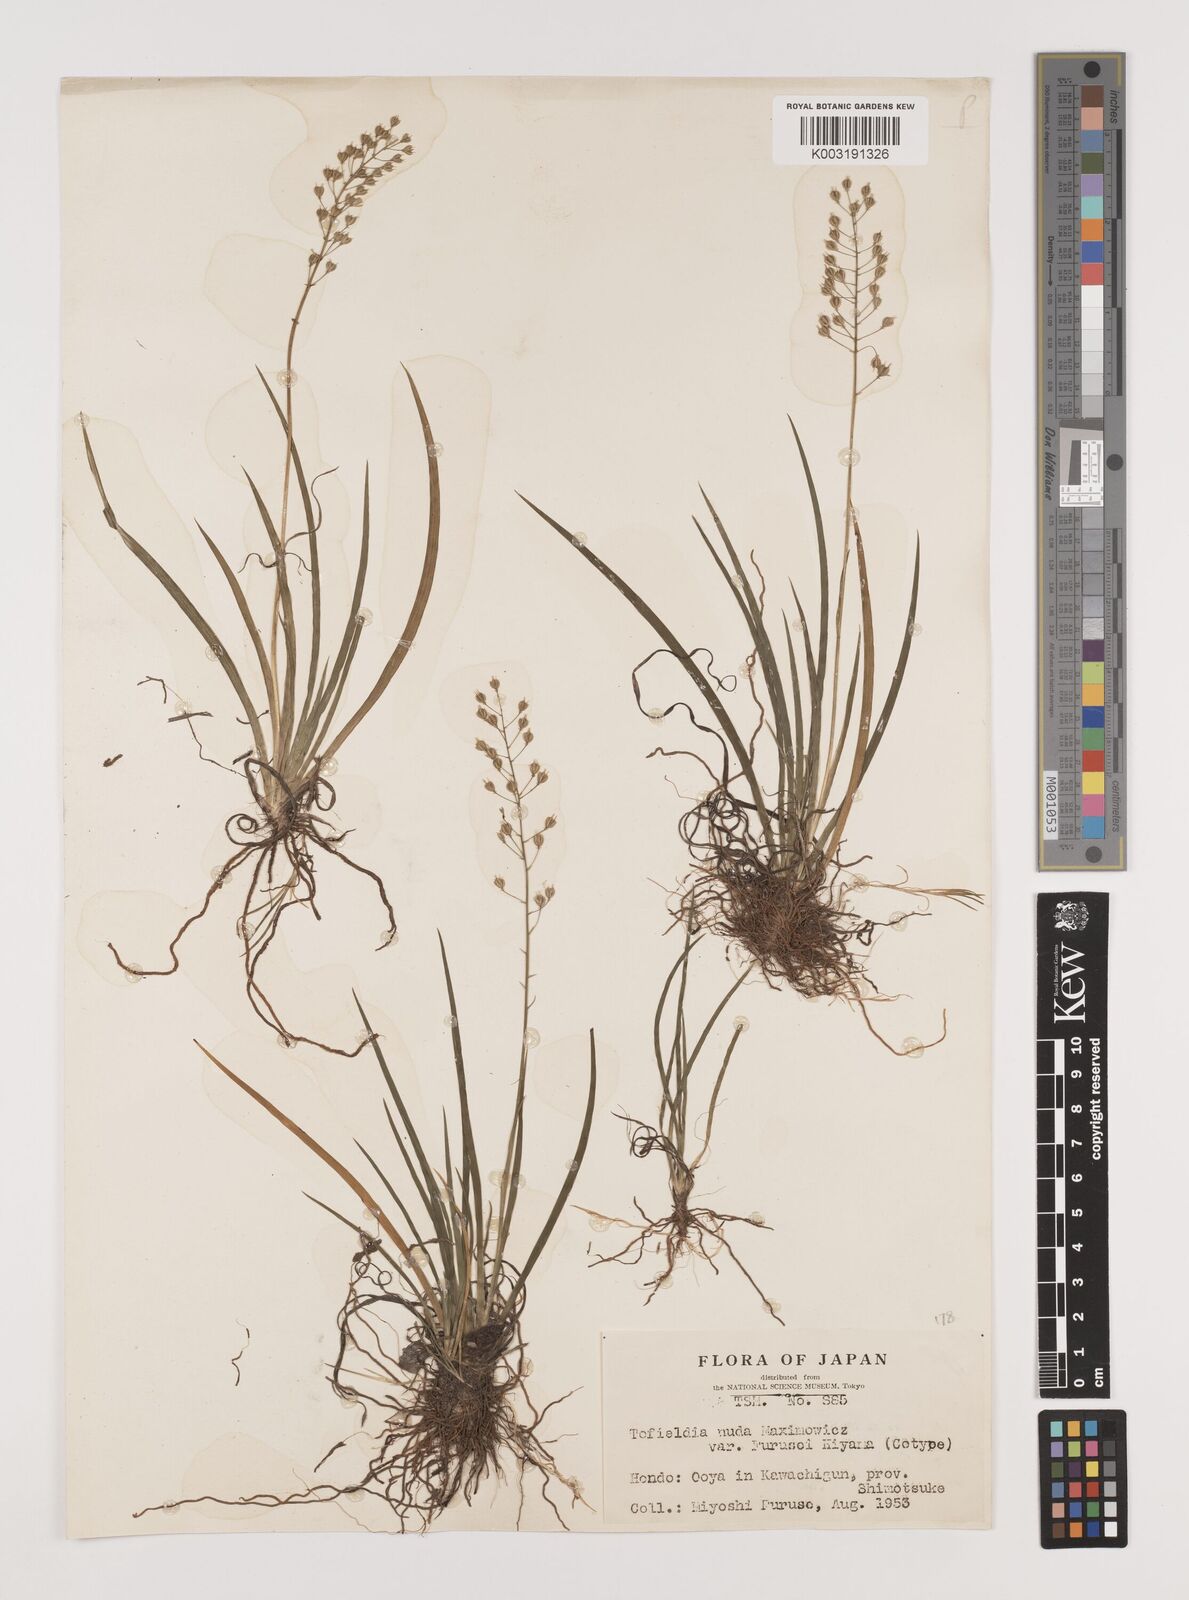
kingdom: Plantae
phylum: Tracheophyta
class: Liliopsida
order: Alismatales
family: Tofieldiaceae
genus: Tofieldia
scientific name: Tofieldia furusei
